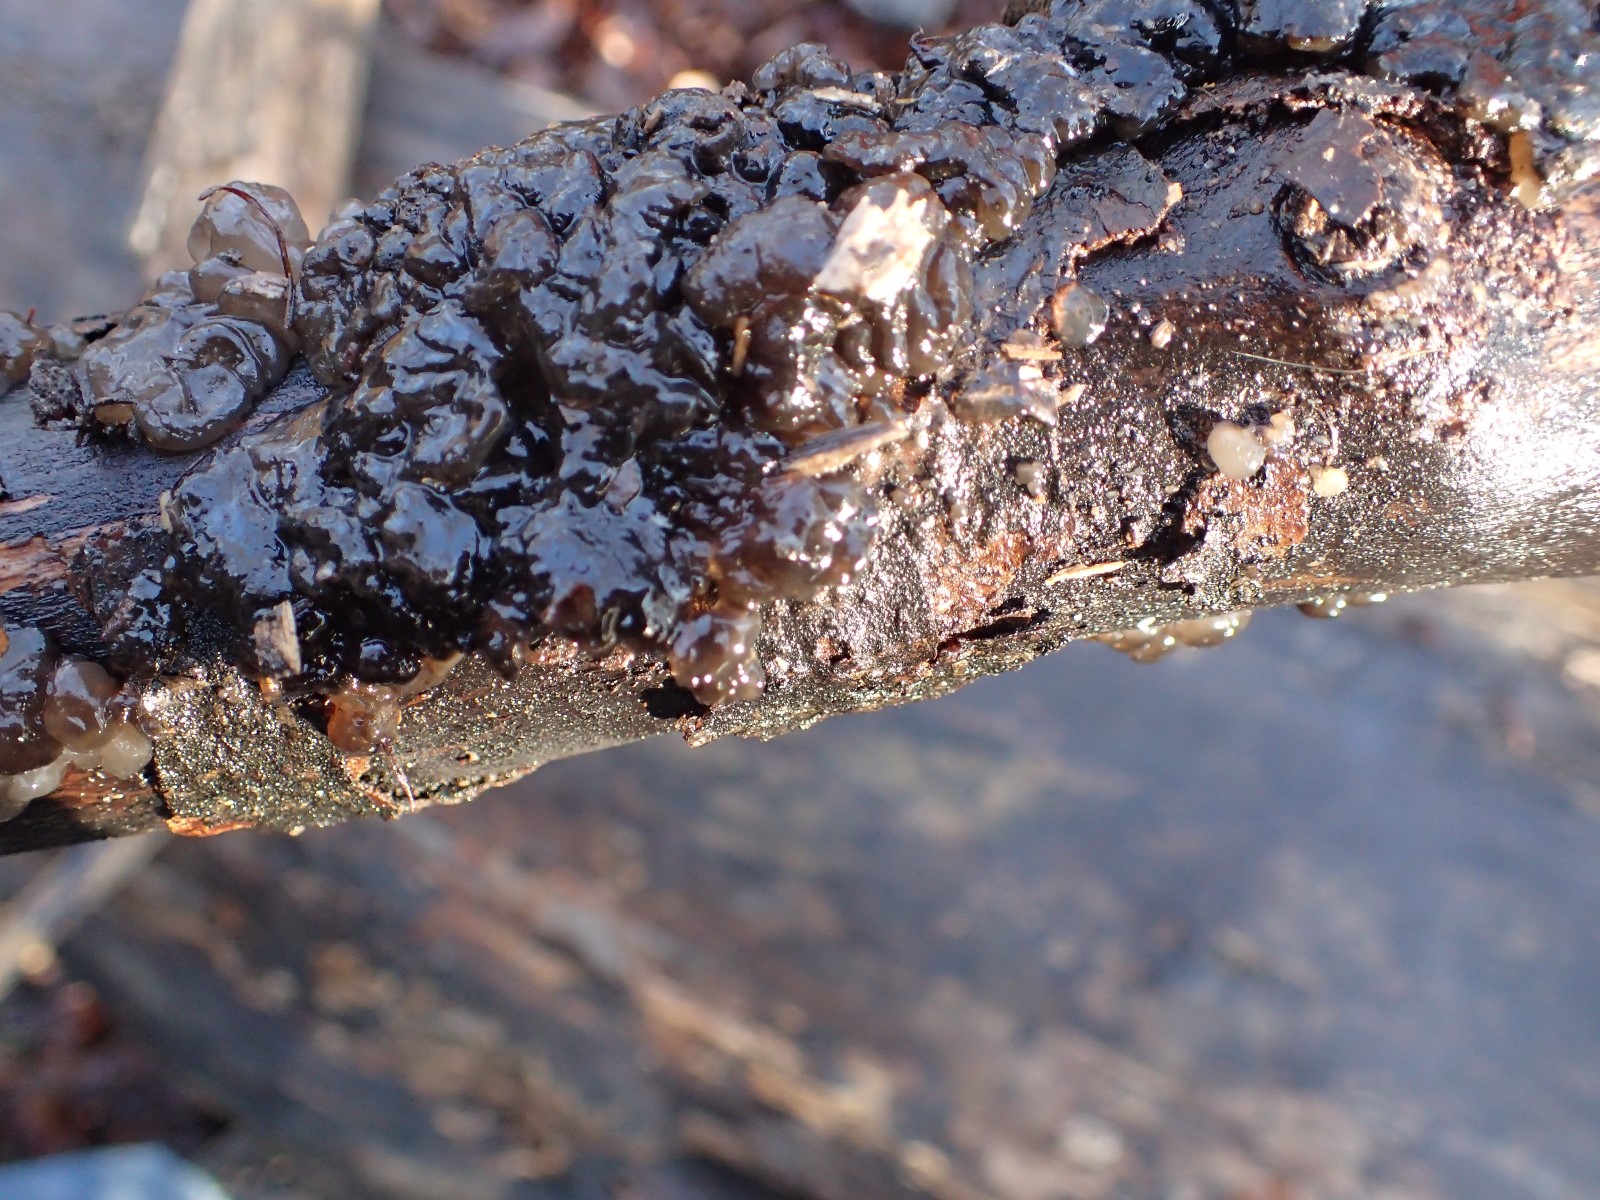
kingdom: Fungi
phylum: Basidiomycota
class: Agaricomycetes
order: Auriculariales
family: Auriculariaceae
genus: Exidia
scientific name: Exidia nigricans
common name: almindelig bævretop
